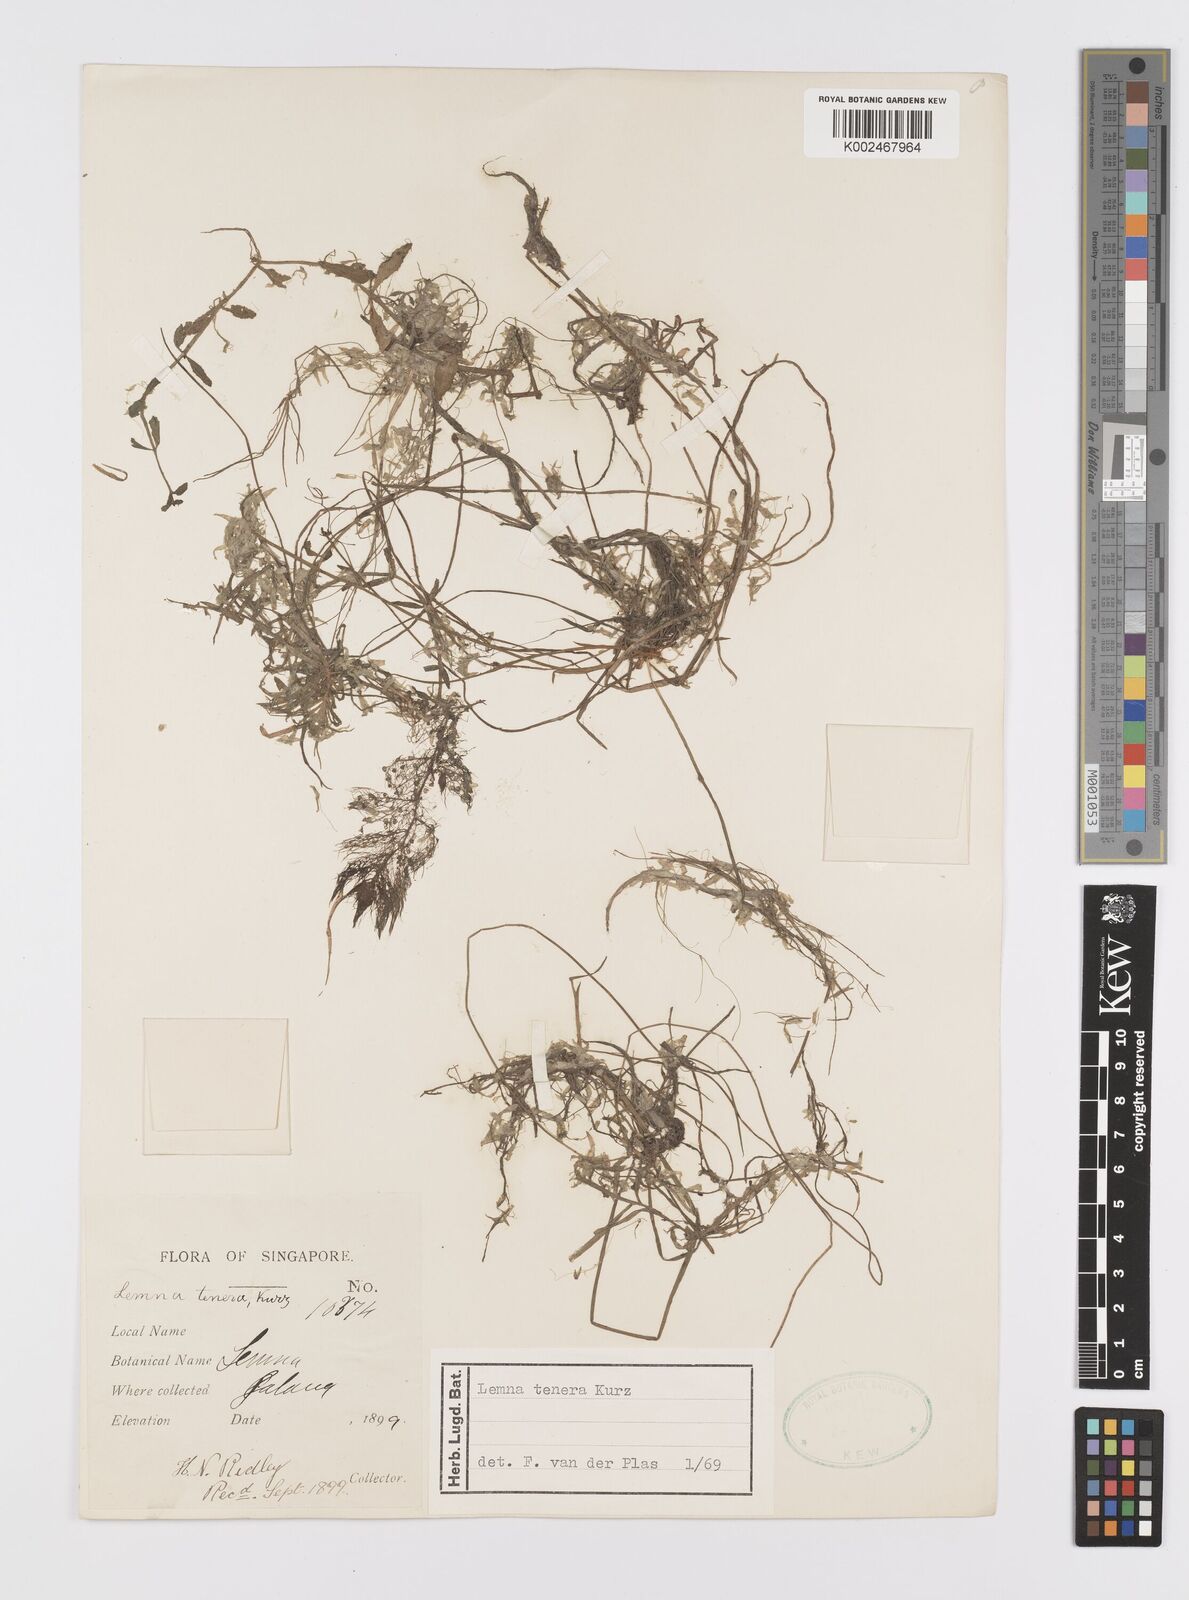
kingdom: Plantae
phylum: Tracheophyta
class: Liliopsida
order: Alismatales
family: Araceae
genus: Lemna
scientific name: Lemna tenera
